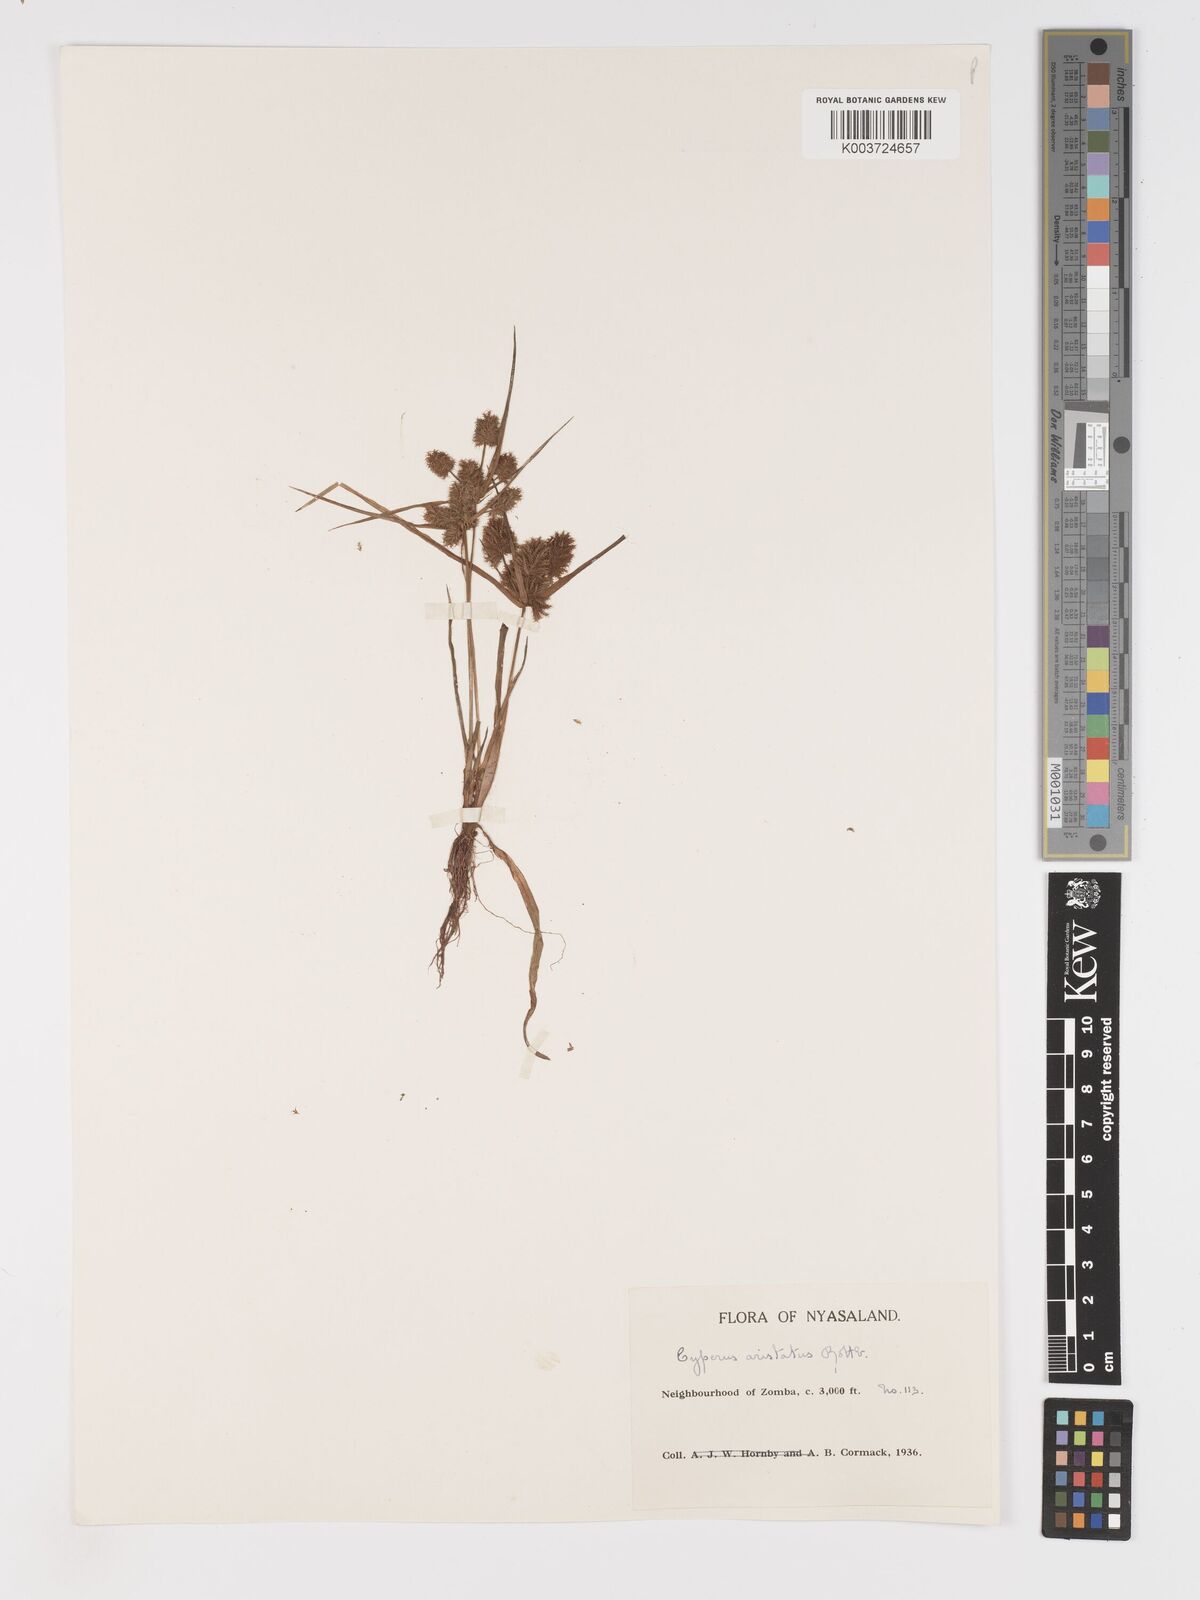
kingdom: Plantae
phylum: Tracheophyta
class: Liliopsida
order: Poales
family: Cyperaceae
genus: Cyperus
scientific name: Cyperus squarrosus
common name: Awned cyperus
